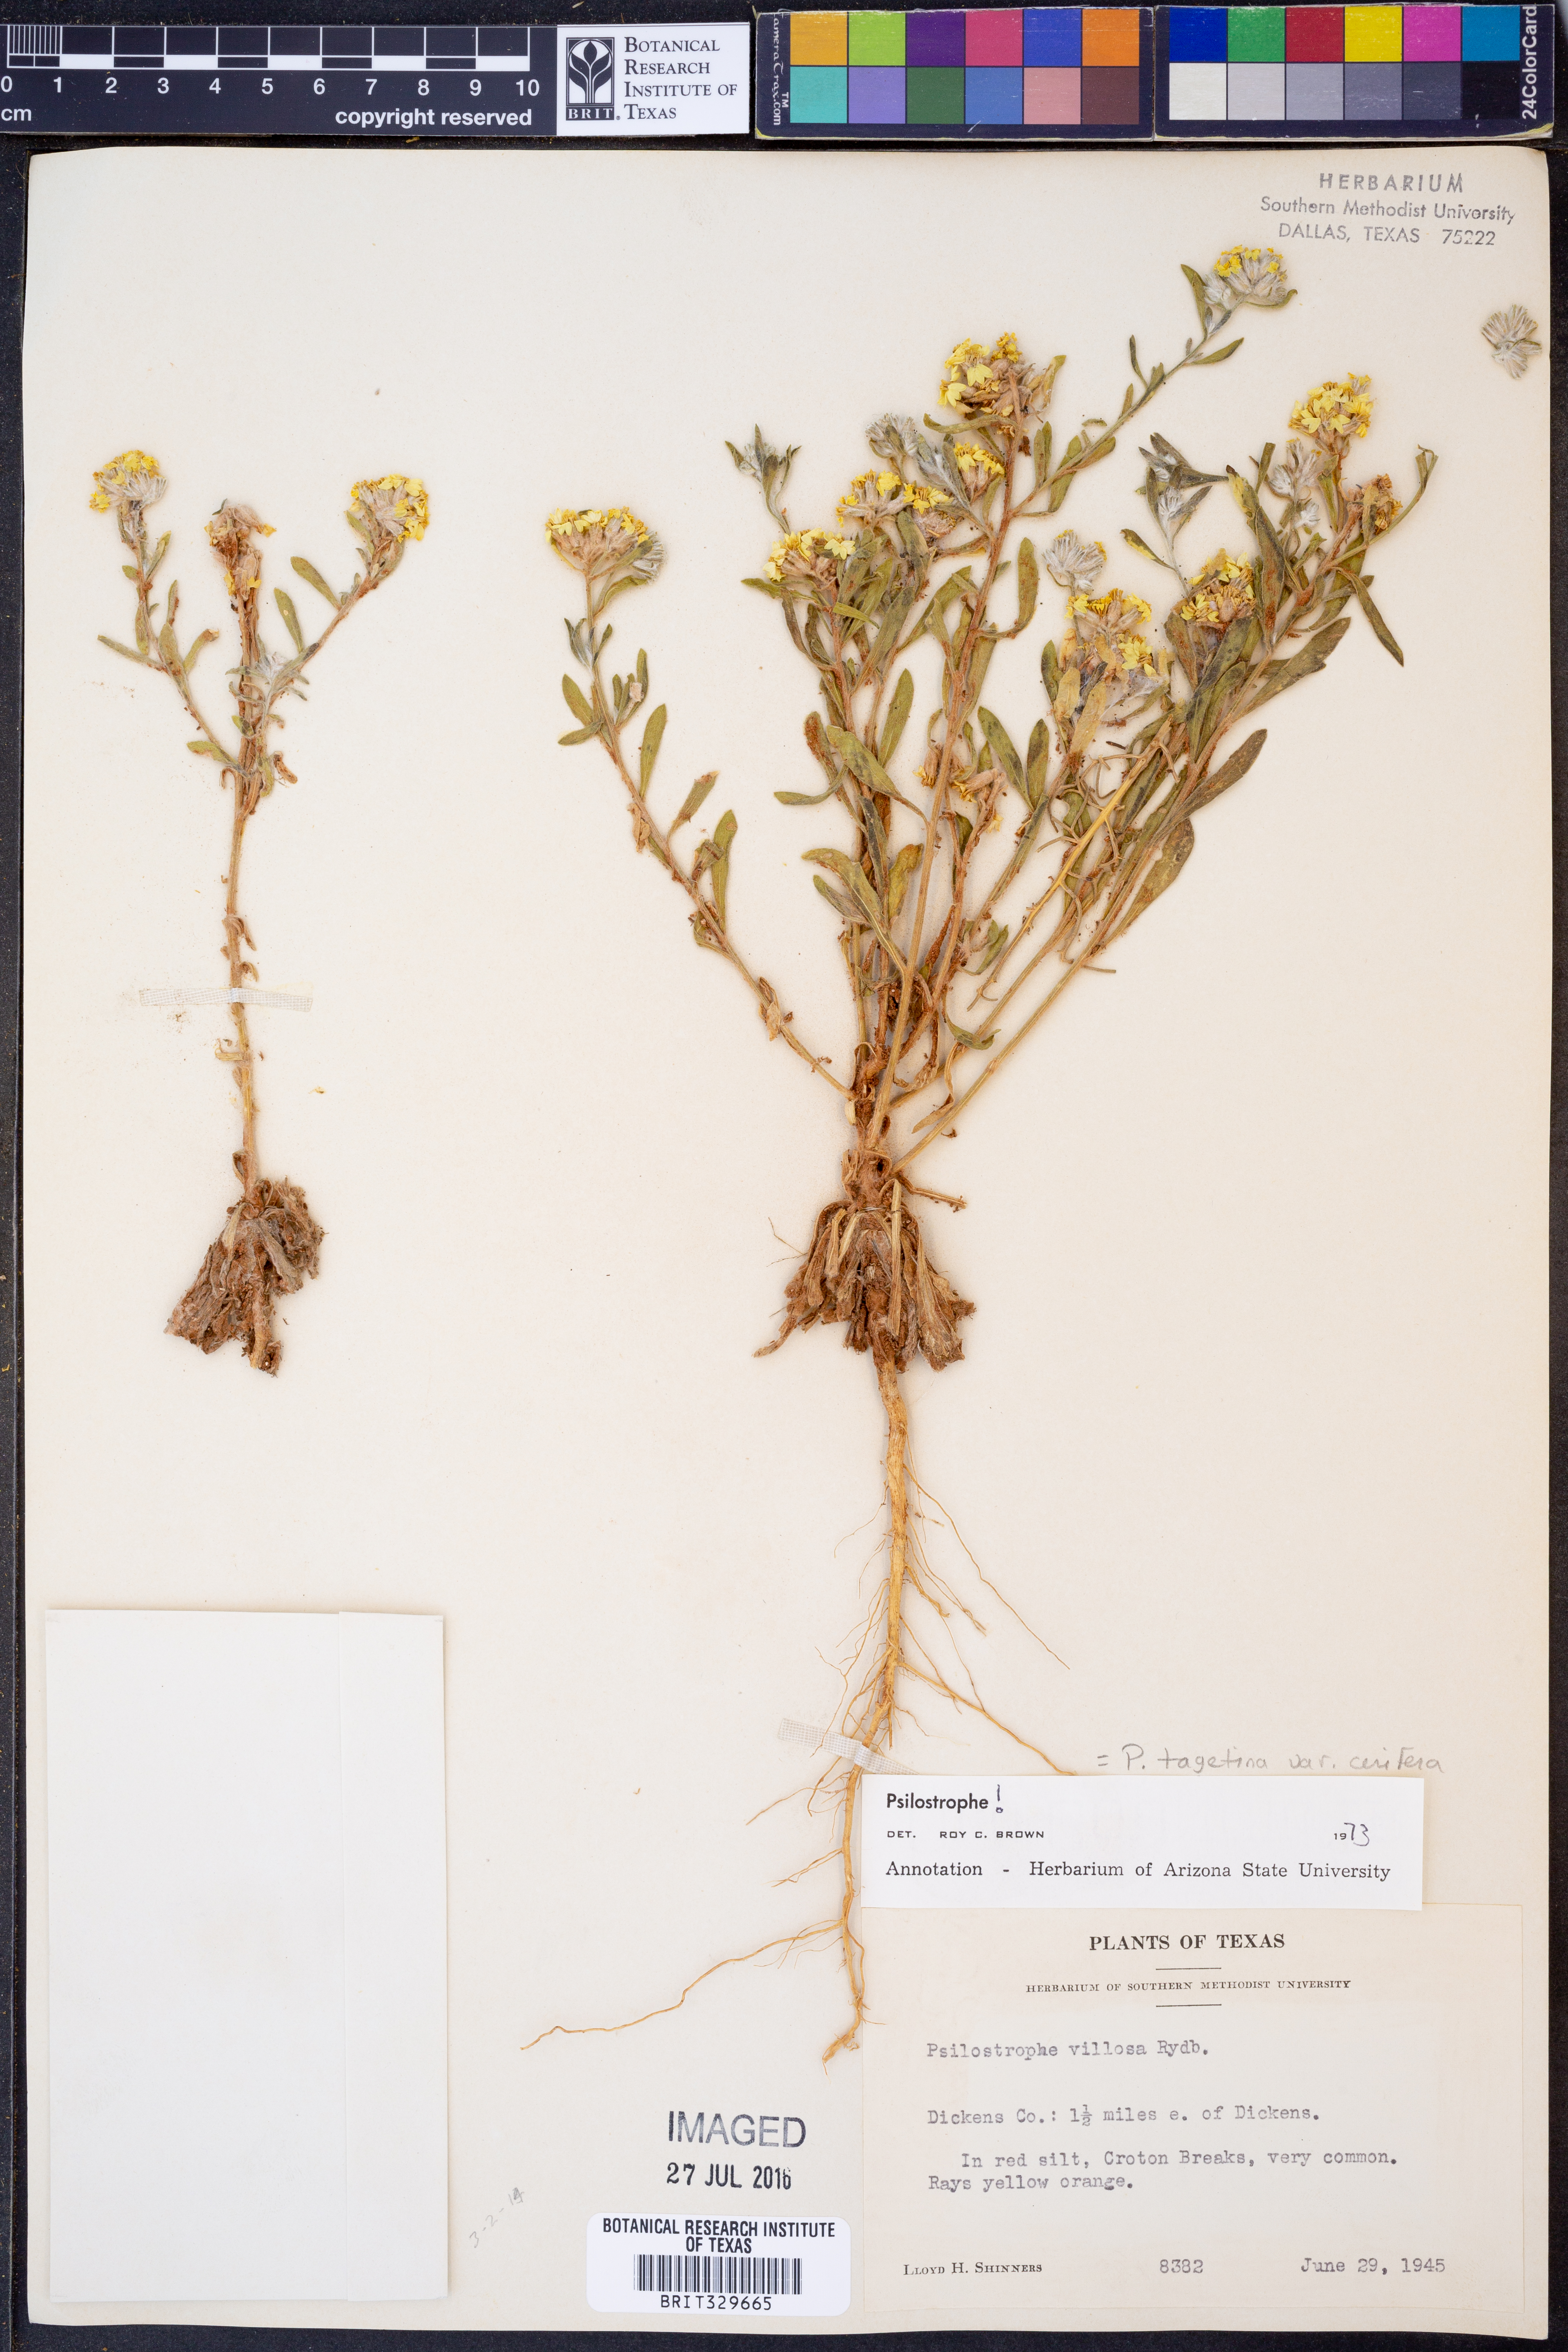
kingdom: Plantae
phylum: Tracheophyta
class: Magnoliopsida
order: Asterales
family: Asteraceae
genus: Psilostrophe
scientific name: Psilostrophe villosa
